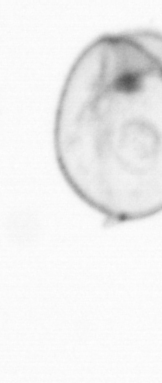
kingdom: Chromista
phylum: Myzozoa
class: Dinophyceae
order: Noctilucales
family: Noctilucaceae
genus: Noctiluca
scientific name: Noctiluca scintillans
